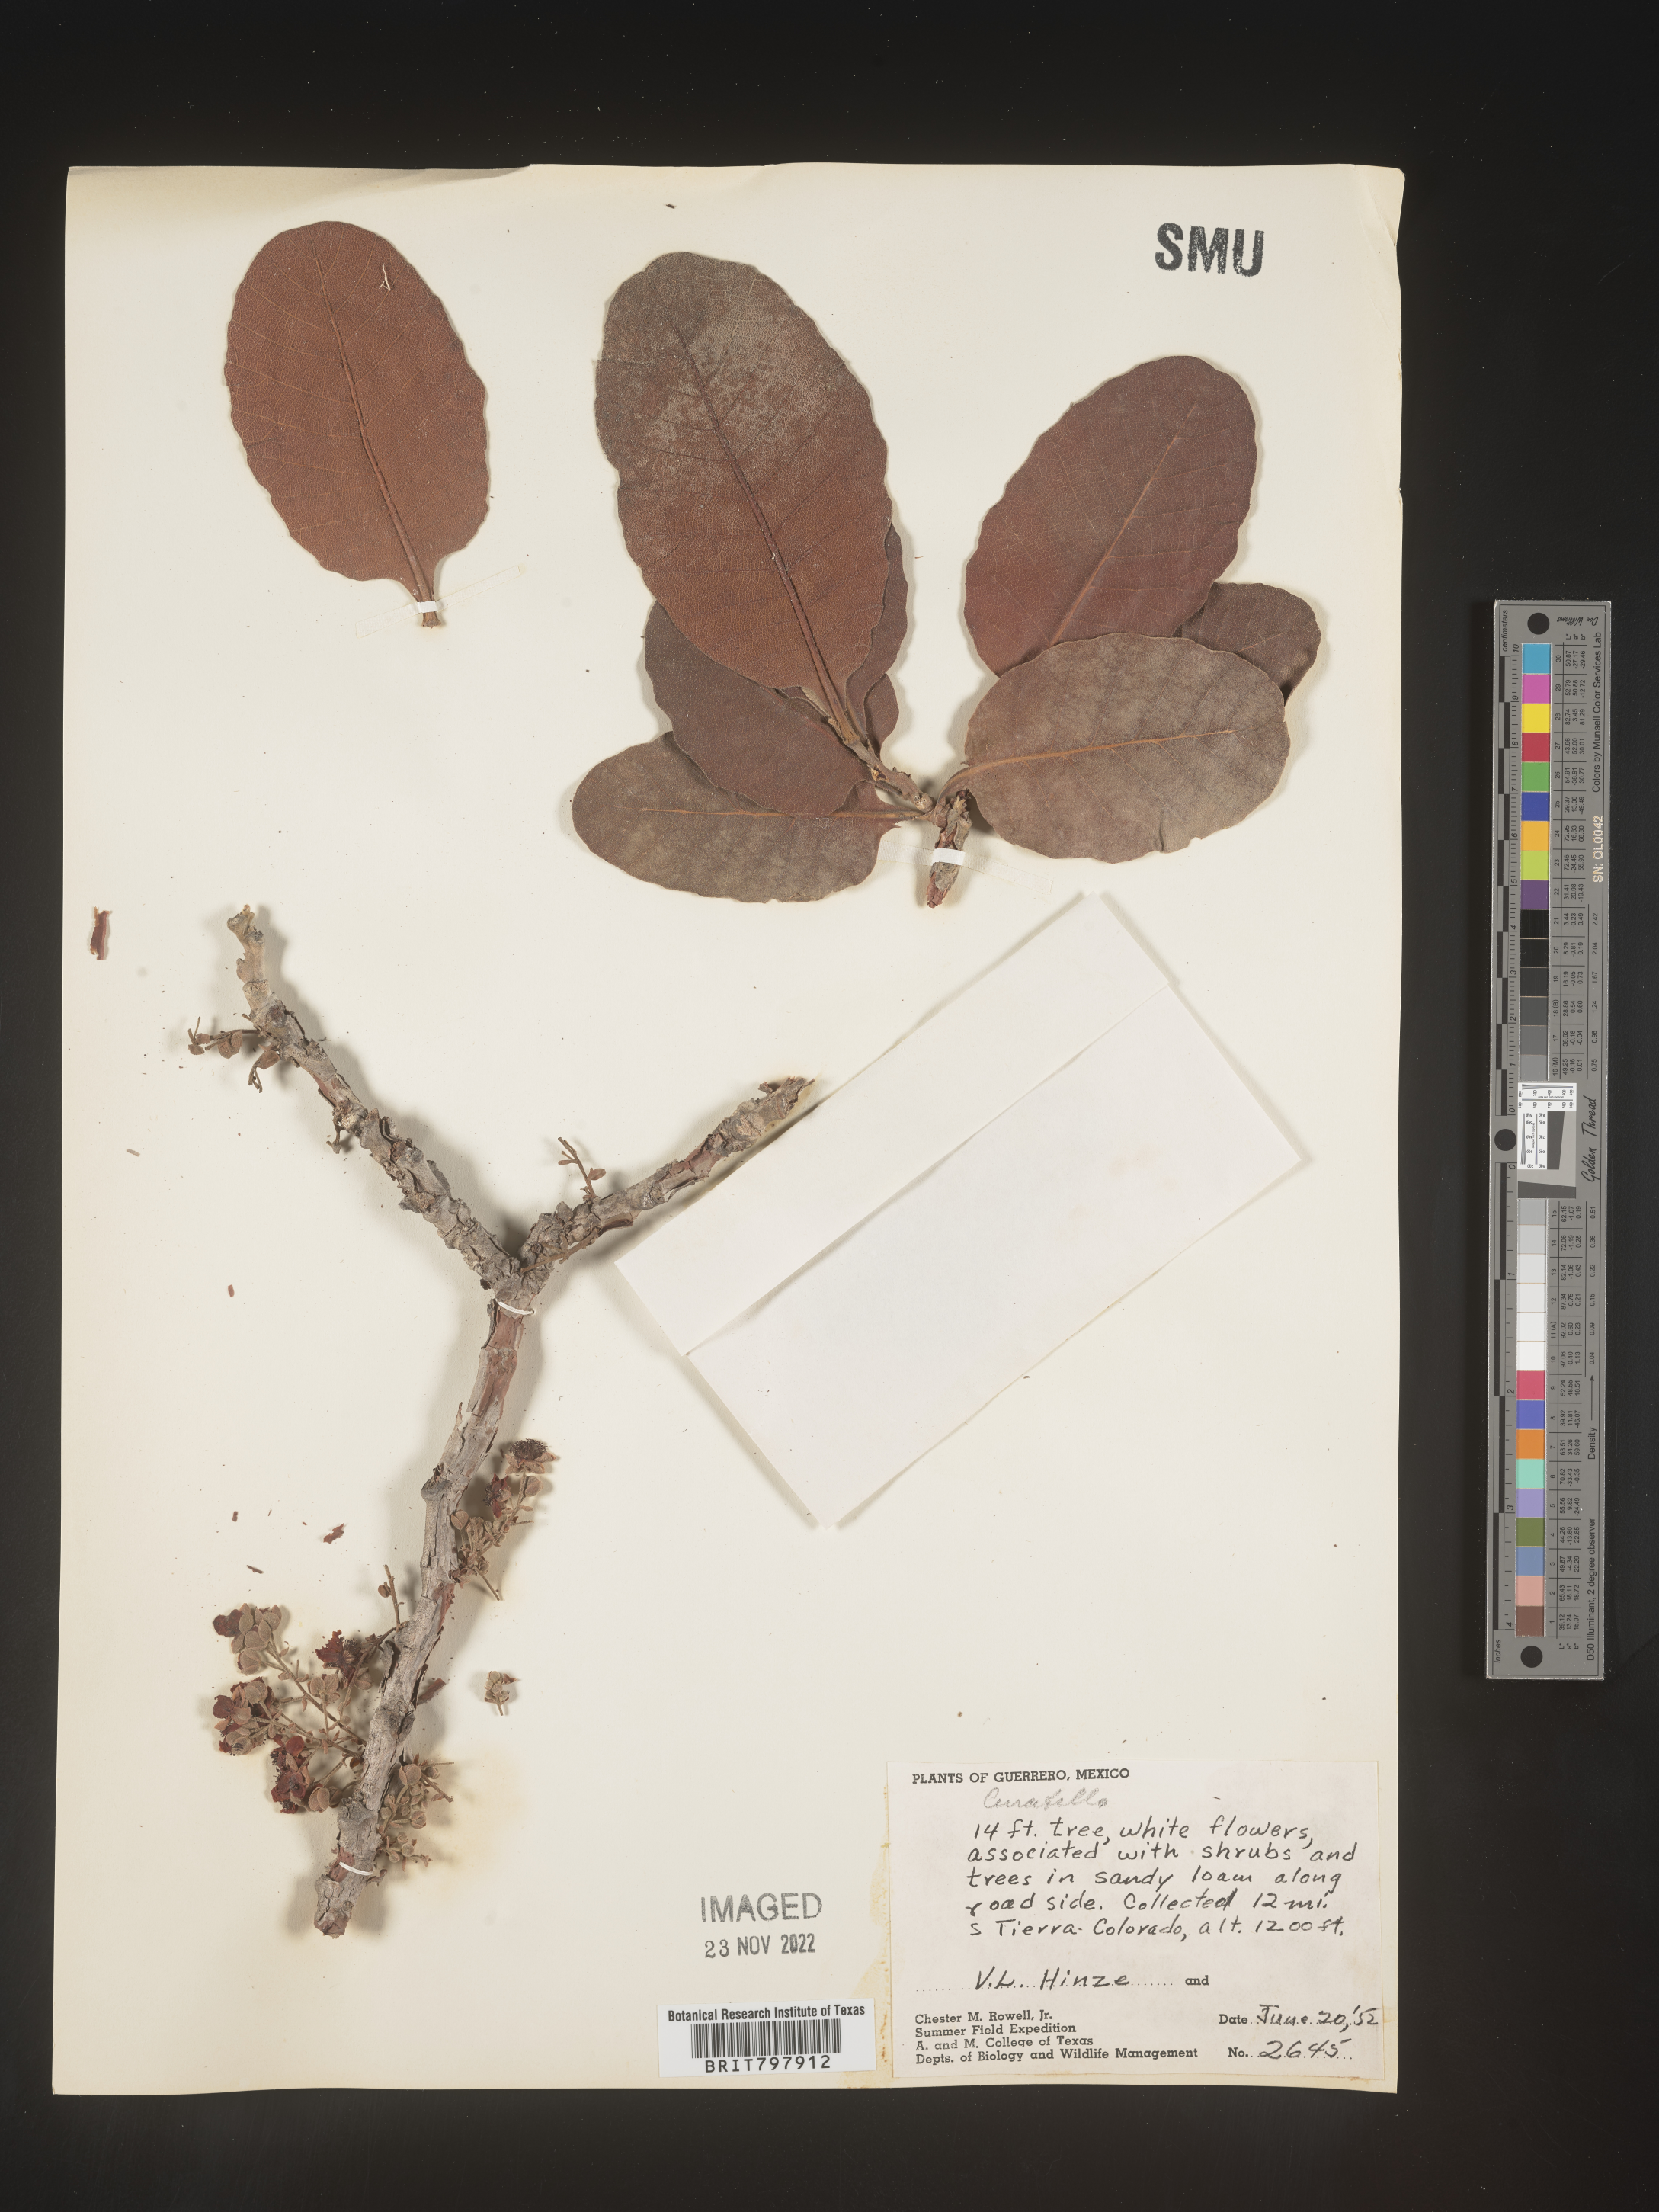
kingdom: Plantae
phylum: Tracheophyta
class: Magnoliopsida
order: Dilleniales
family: Dilleniaceae
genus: Curatella
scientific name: Curatella
